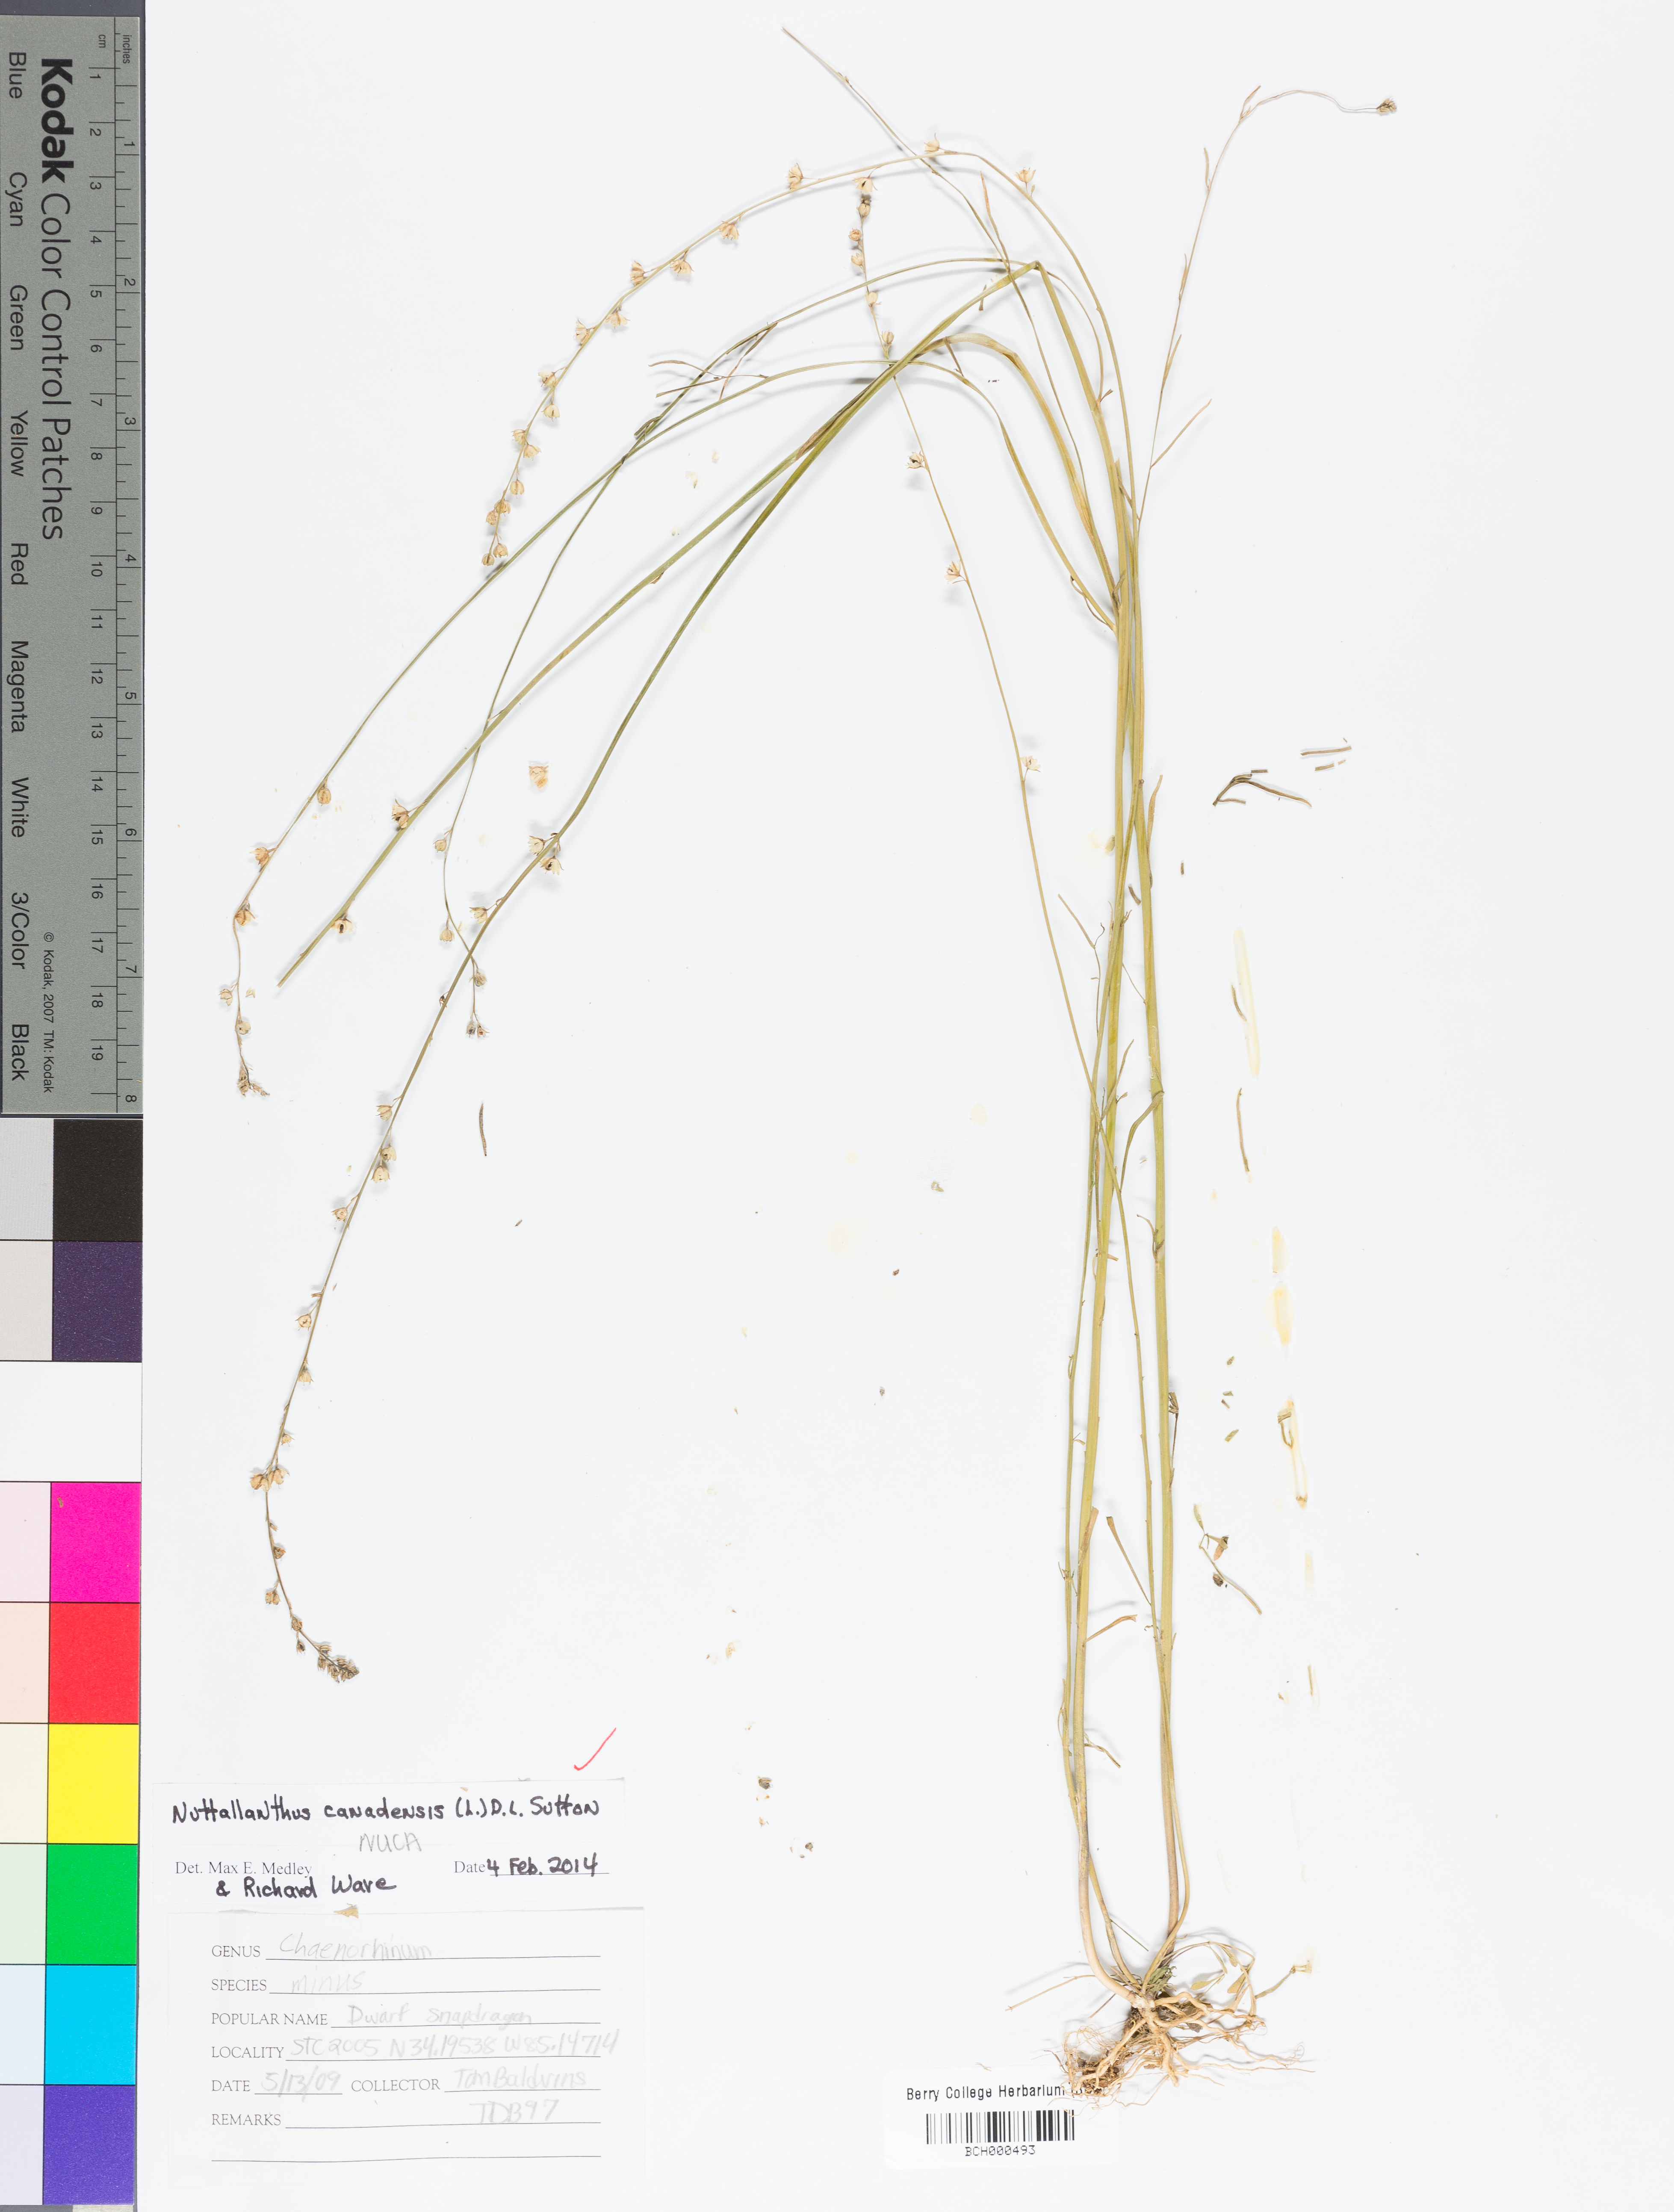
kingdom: Plantae
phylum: Tracheophyta
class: Magnoliopsida
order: Lamiales
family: Plantaginaceae
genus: Nuttallanthus
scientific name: Nuttallanthus canadensis
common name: Blue toadflax
